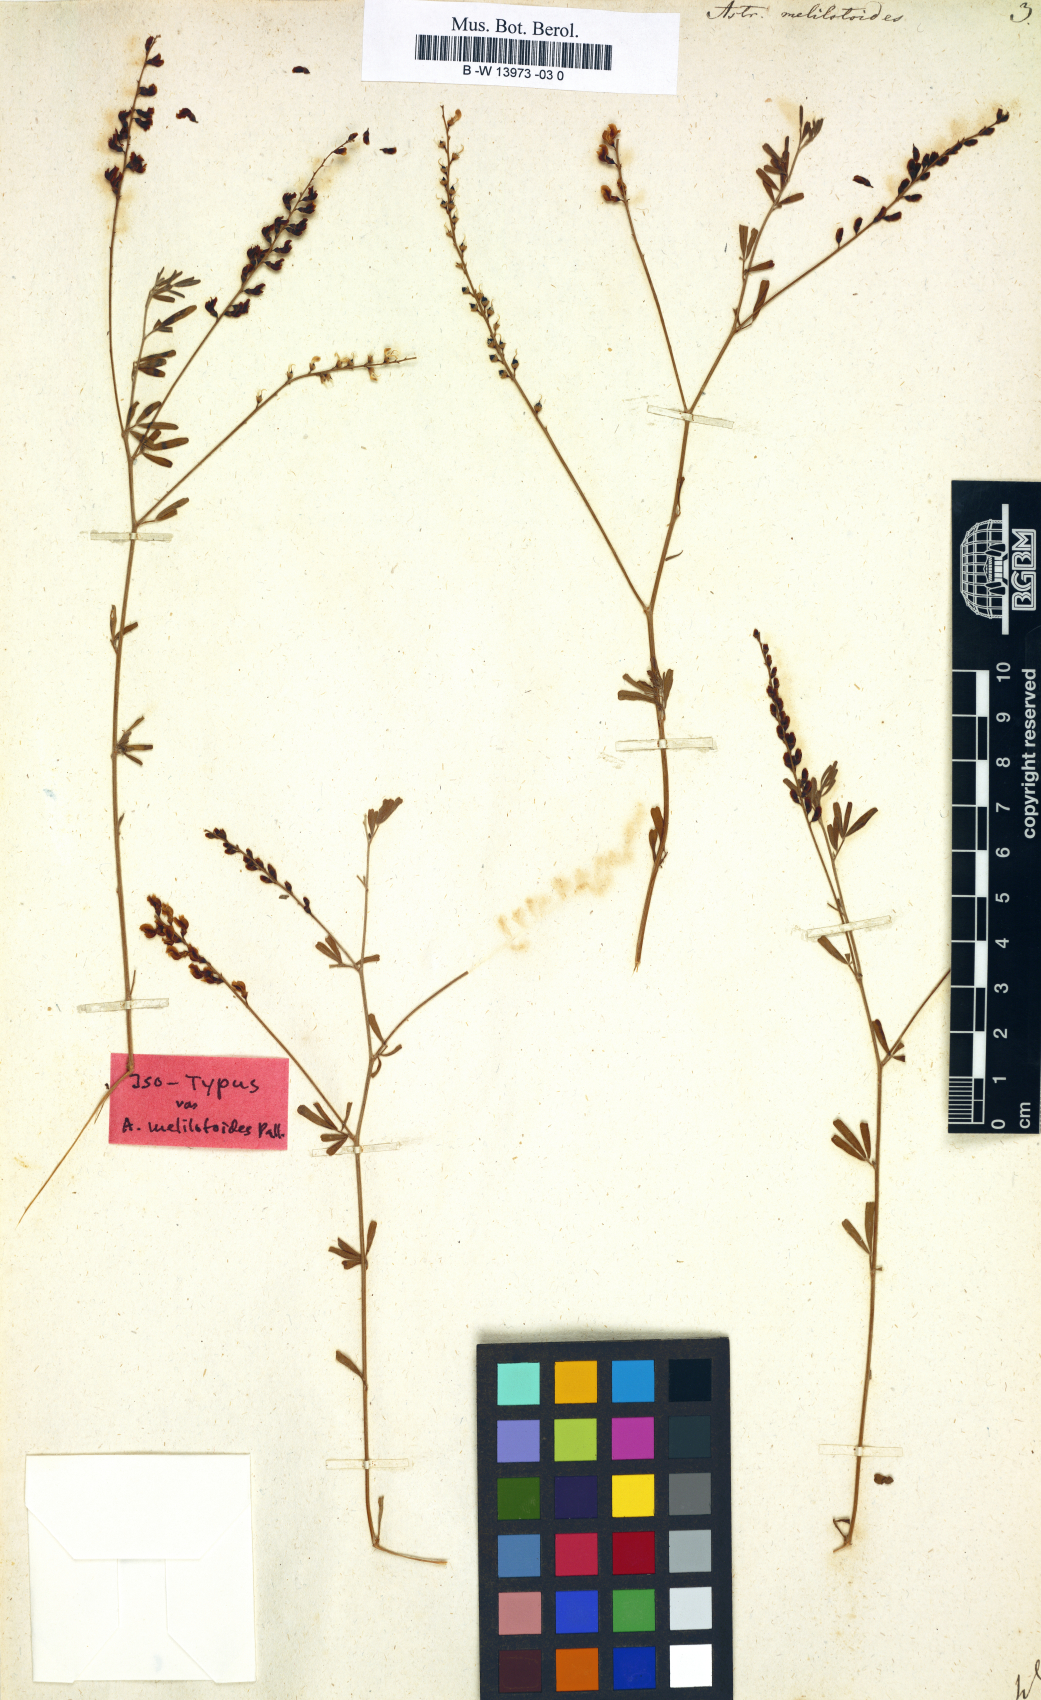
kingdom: Plantae
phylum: Tracheophyta
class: Magnoliopsida
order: Fabales
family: Fabaceae
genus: Astragalus
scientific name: Astragalus melilotoides
